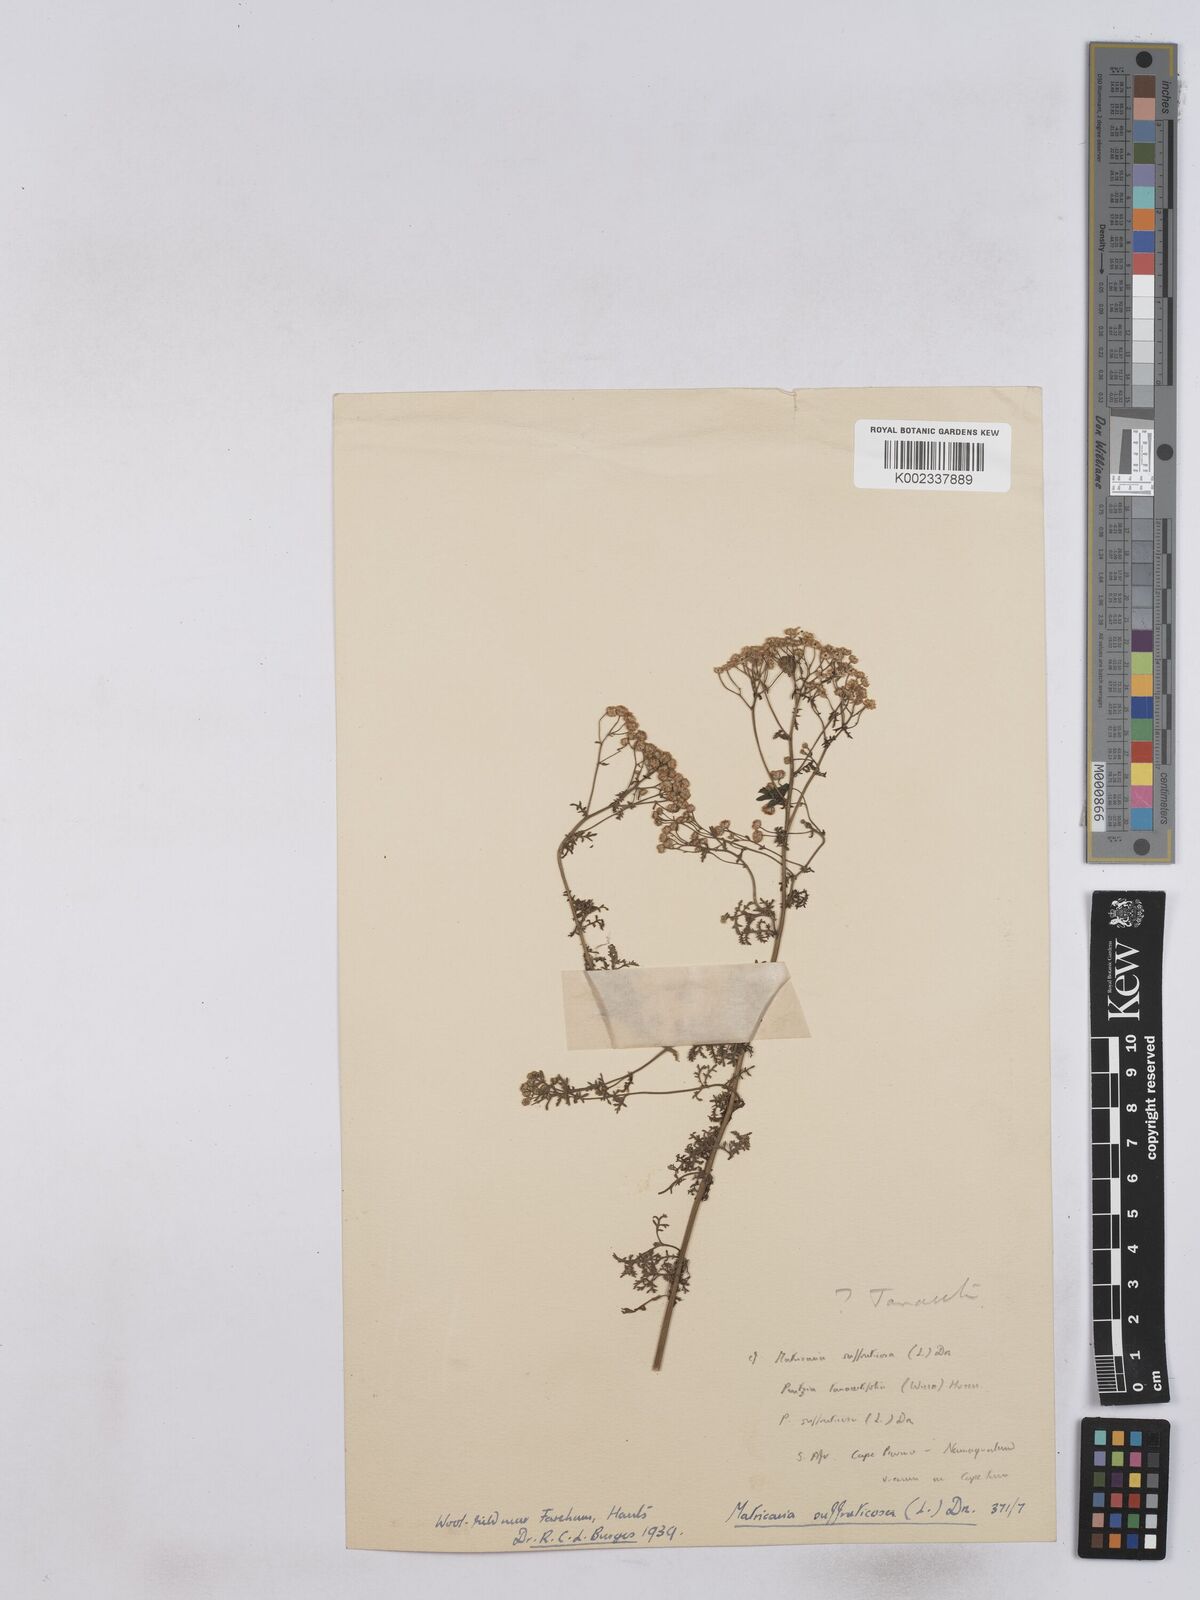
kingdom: Plantae
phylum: Tracheophyta
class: Magnoliopsida
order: Asterales
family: Asteraceae
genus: Matricaria
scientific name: Matricaria discoidea
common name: Disc mayweed
